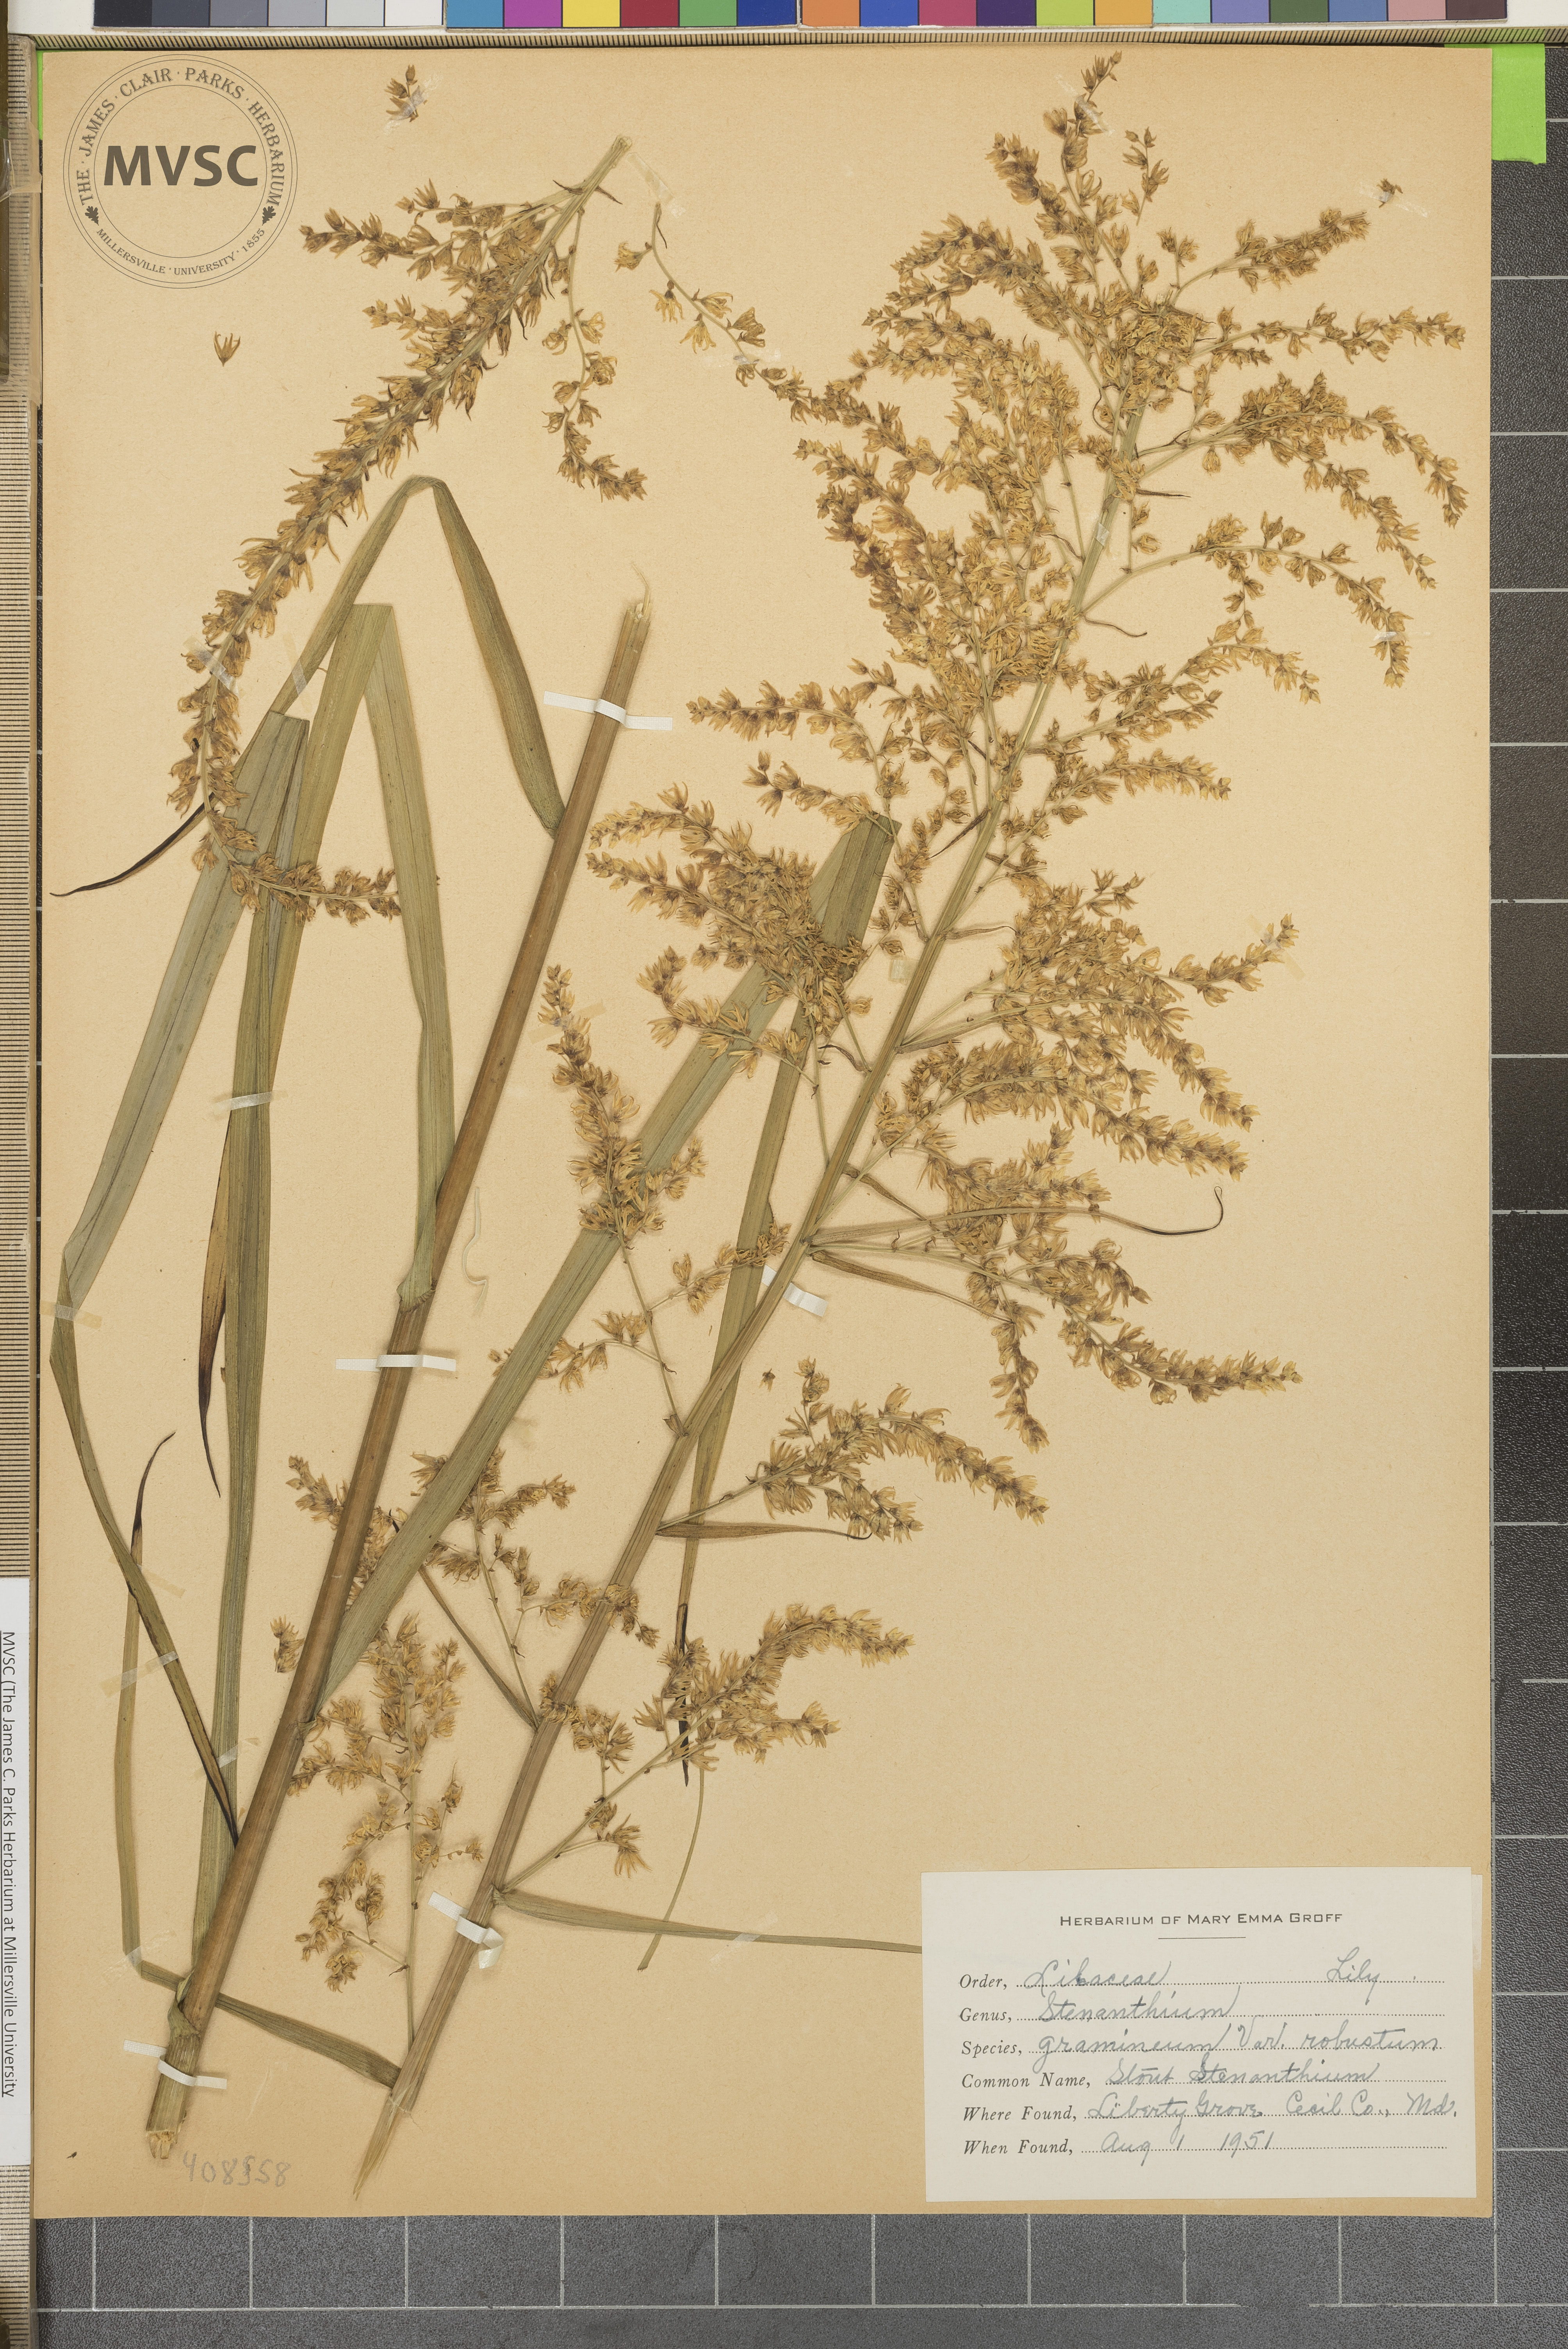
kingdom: Plantae
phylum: Tracheophyta
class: Liliopsida
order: Liliales
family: Melanthiaceae
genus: Stenanthium
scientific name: Stenanthium gramineum
